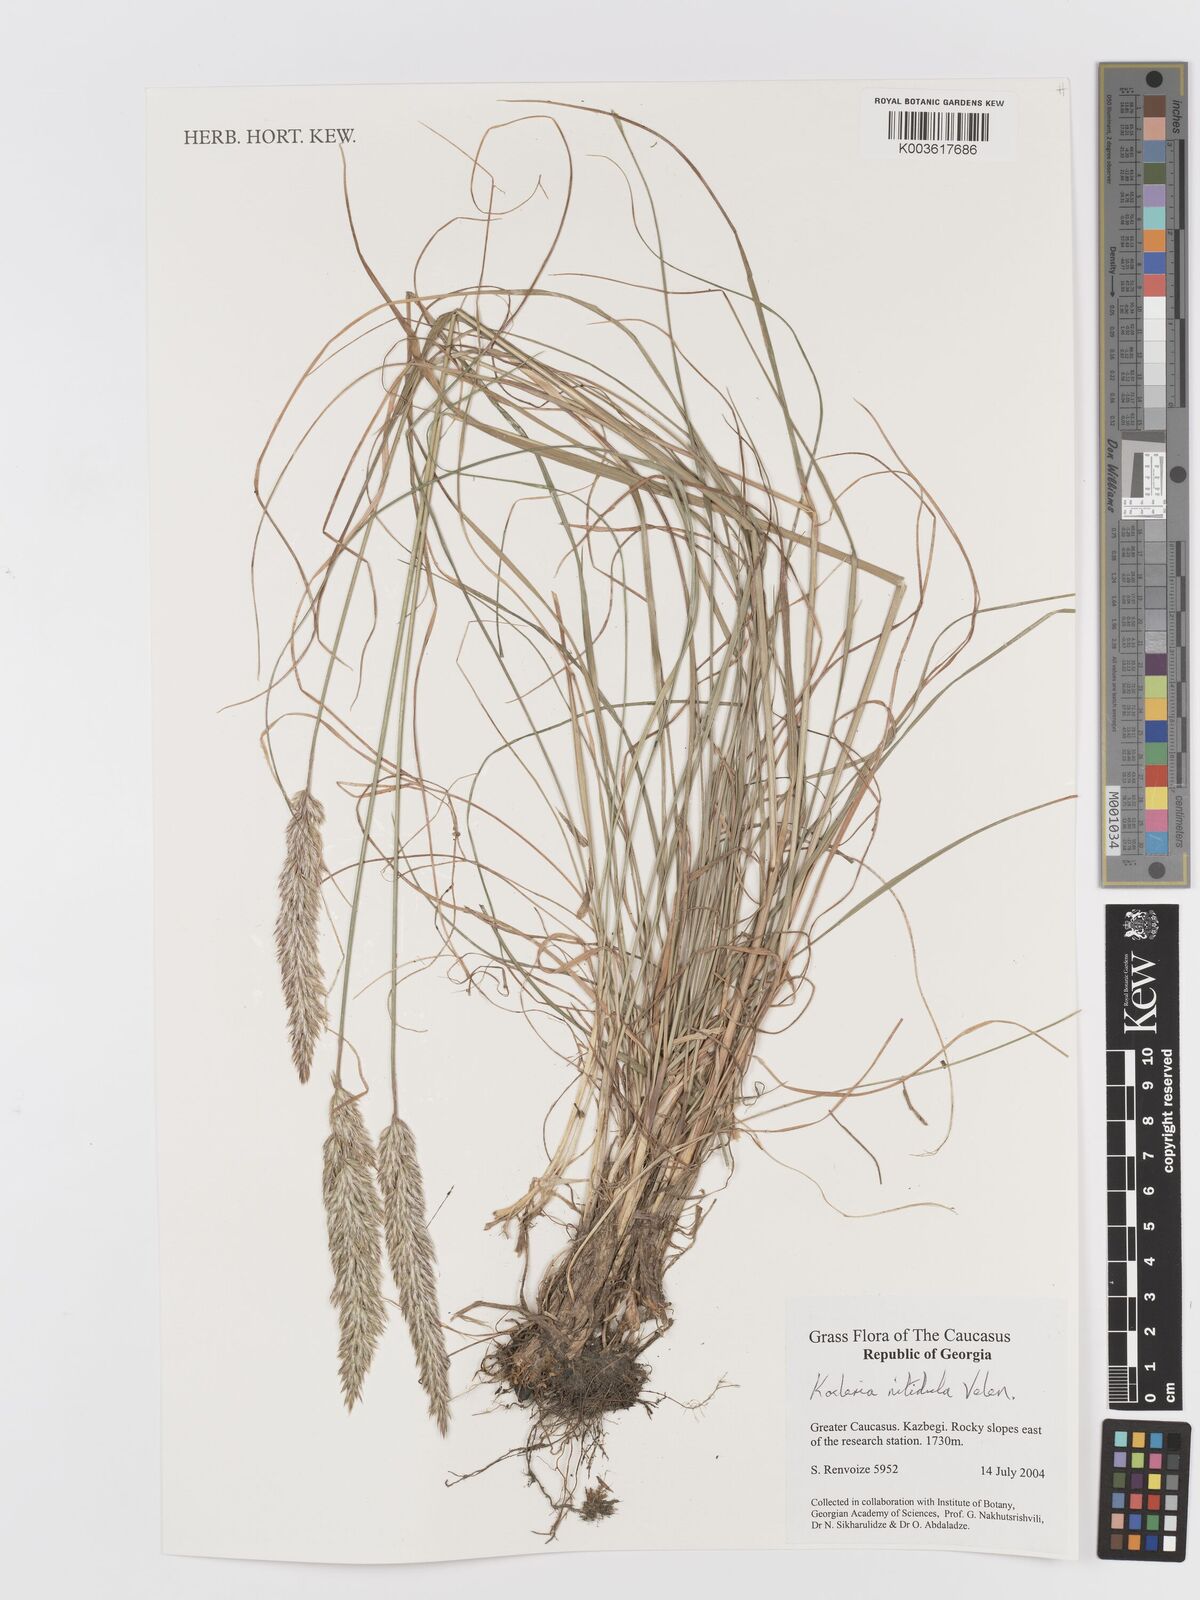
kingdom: Plantae
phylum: Tracheophyta
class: Liliopsida
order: Poales
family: Poaceae
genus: Koeleria
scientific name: Koeleria luerssenii
